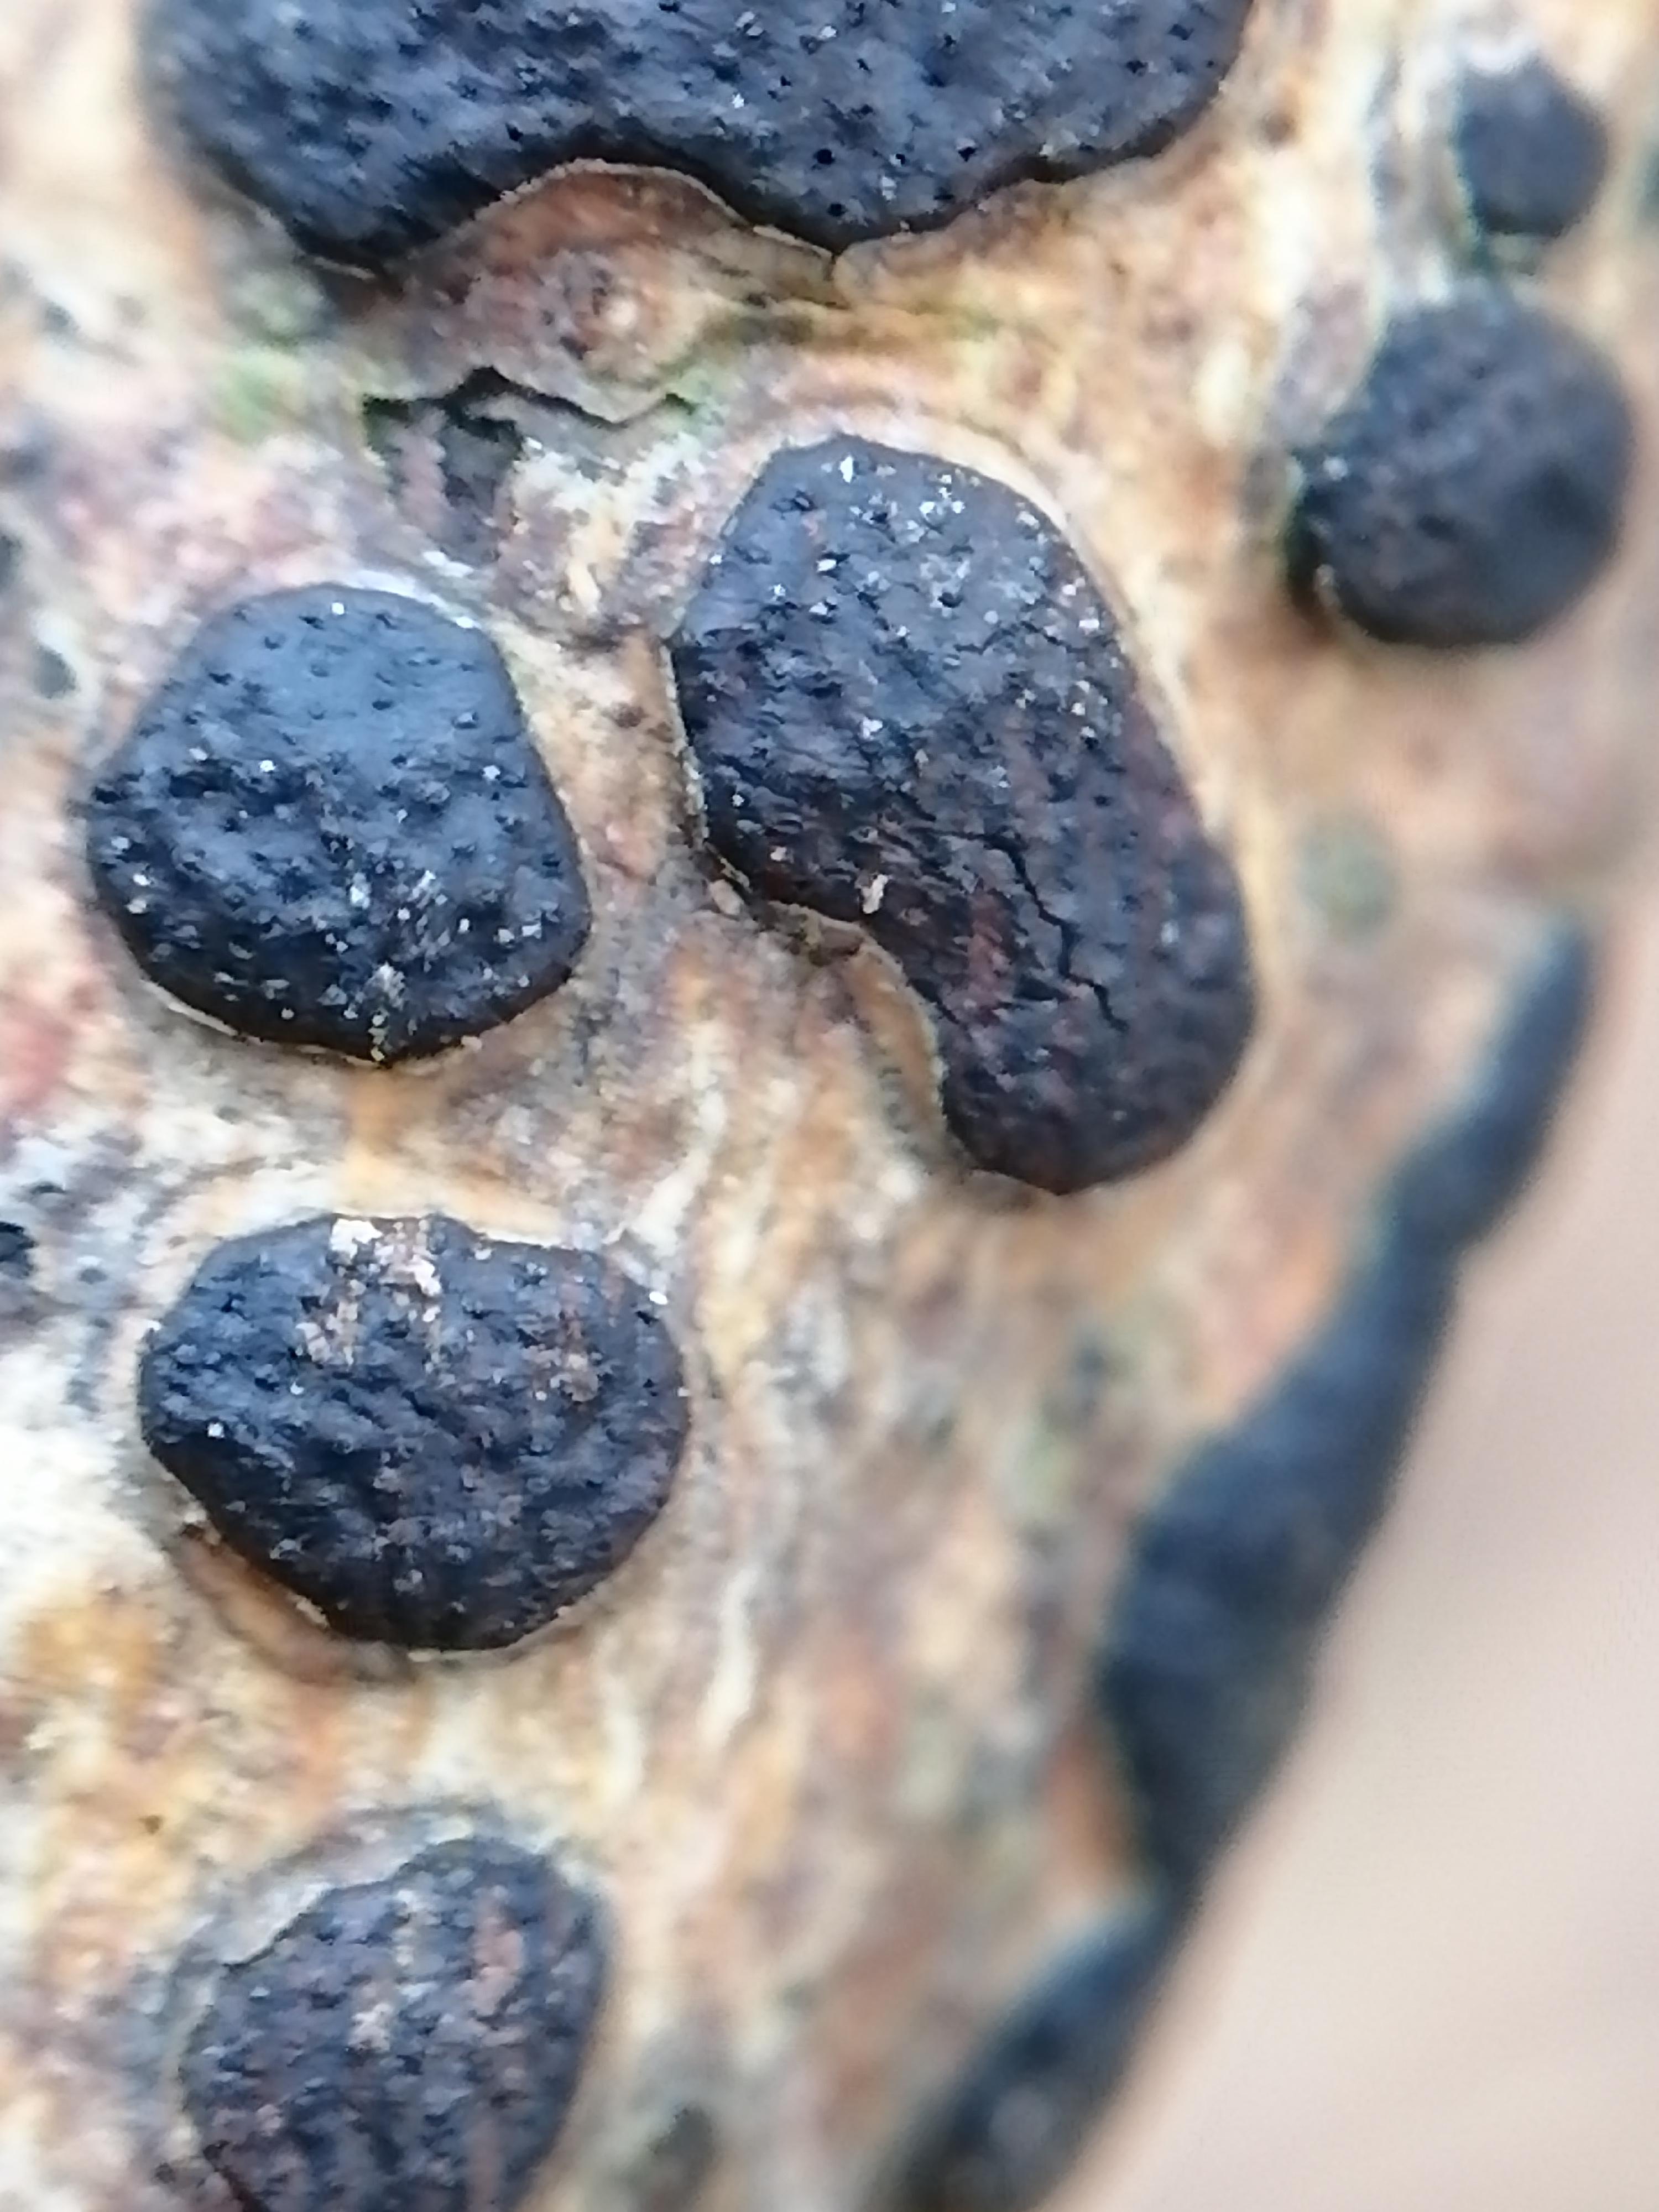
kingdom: Fungi
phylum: Ascomycota
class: Sordariomycetes
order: Xylariales
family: Diatrypaceae
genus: Diatrype
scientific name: Diatrype bullata
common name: pile-kulskorpe
